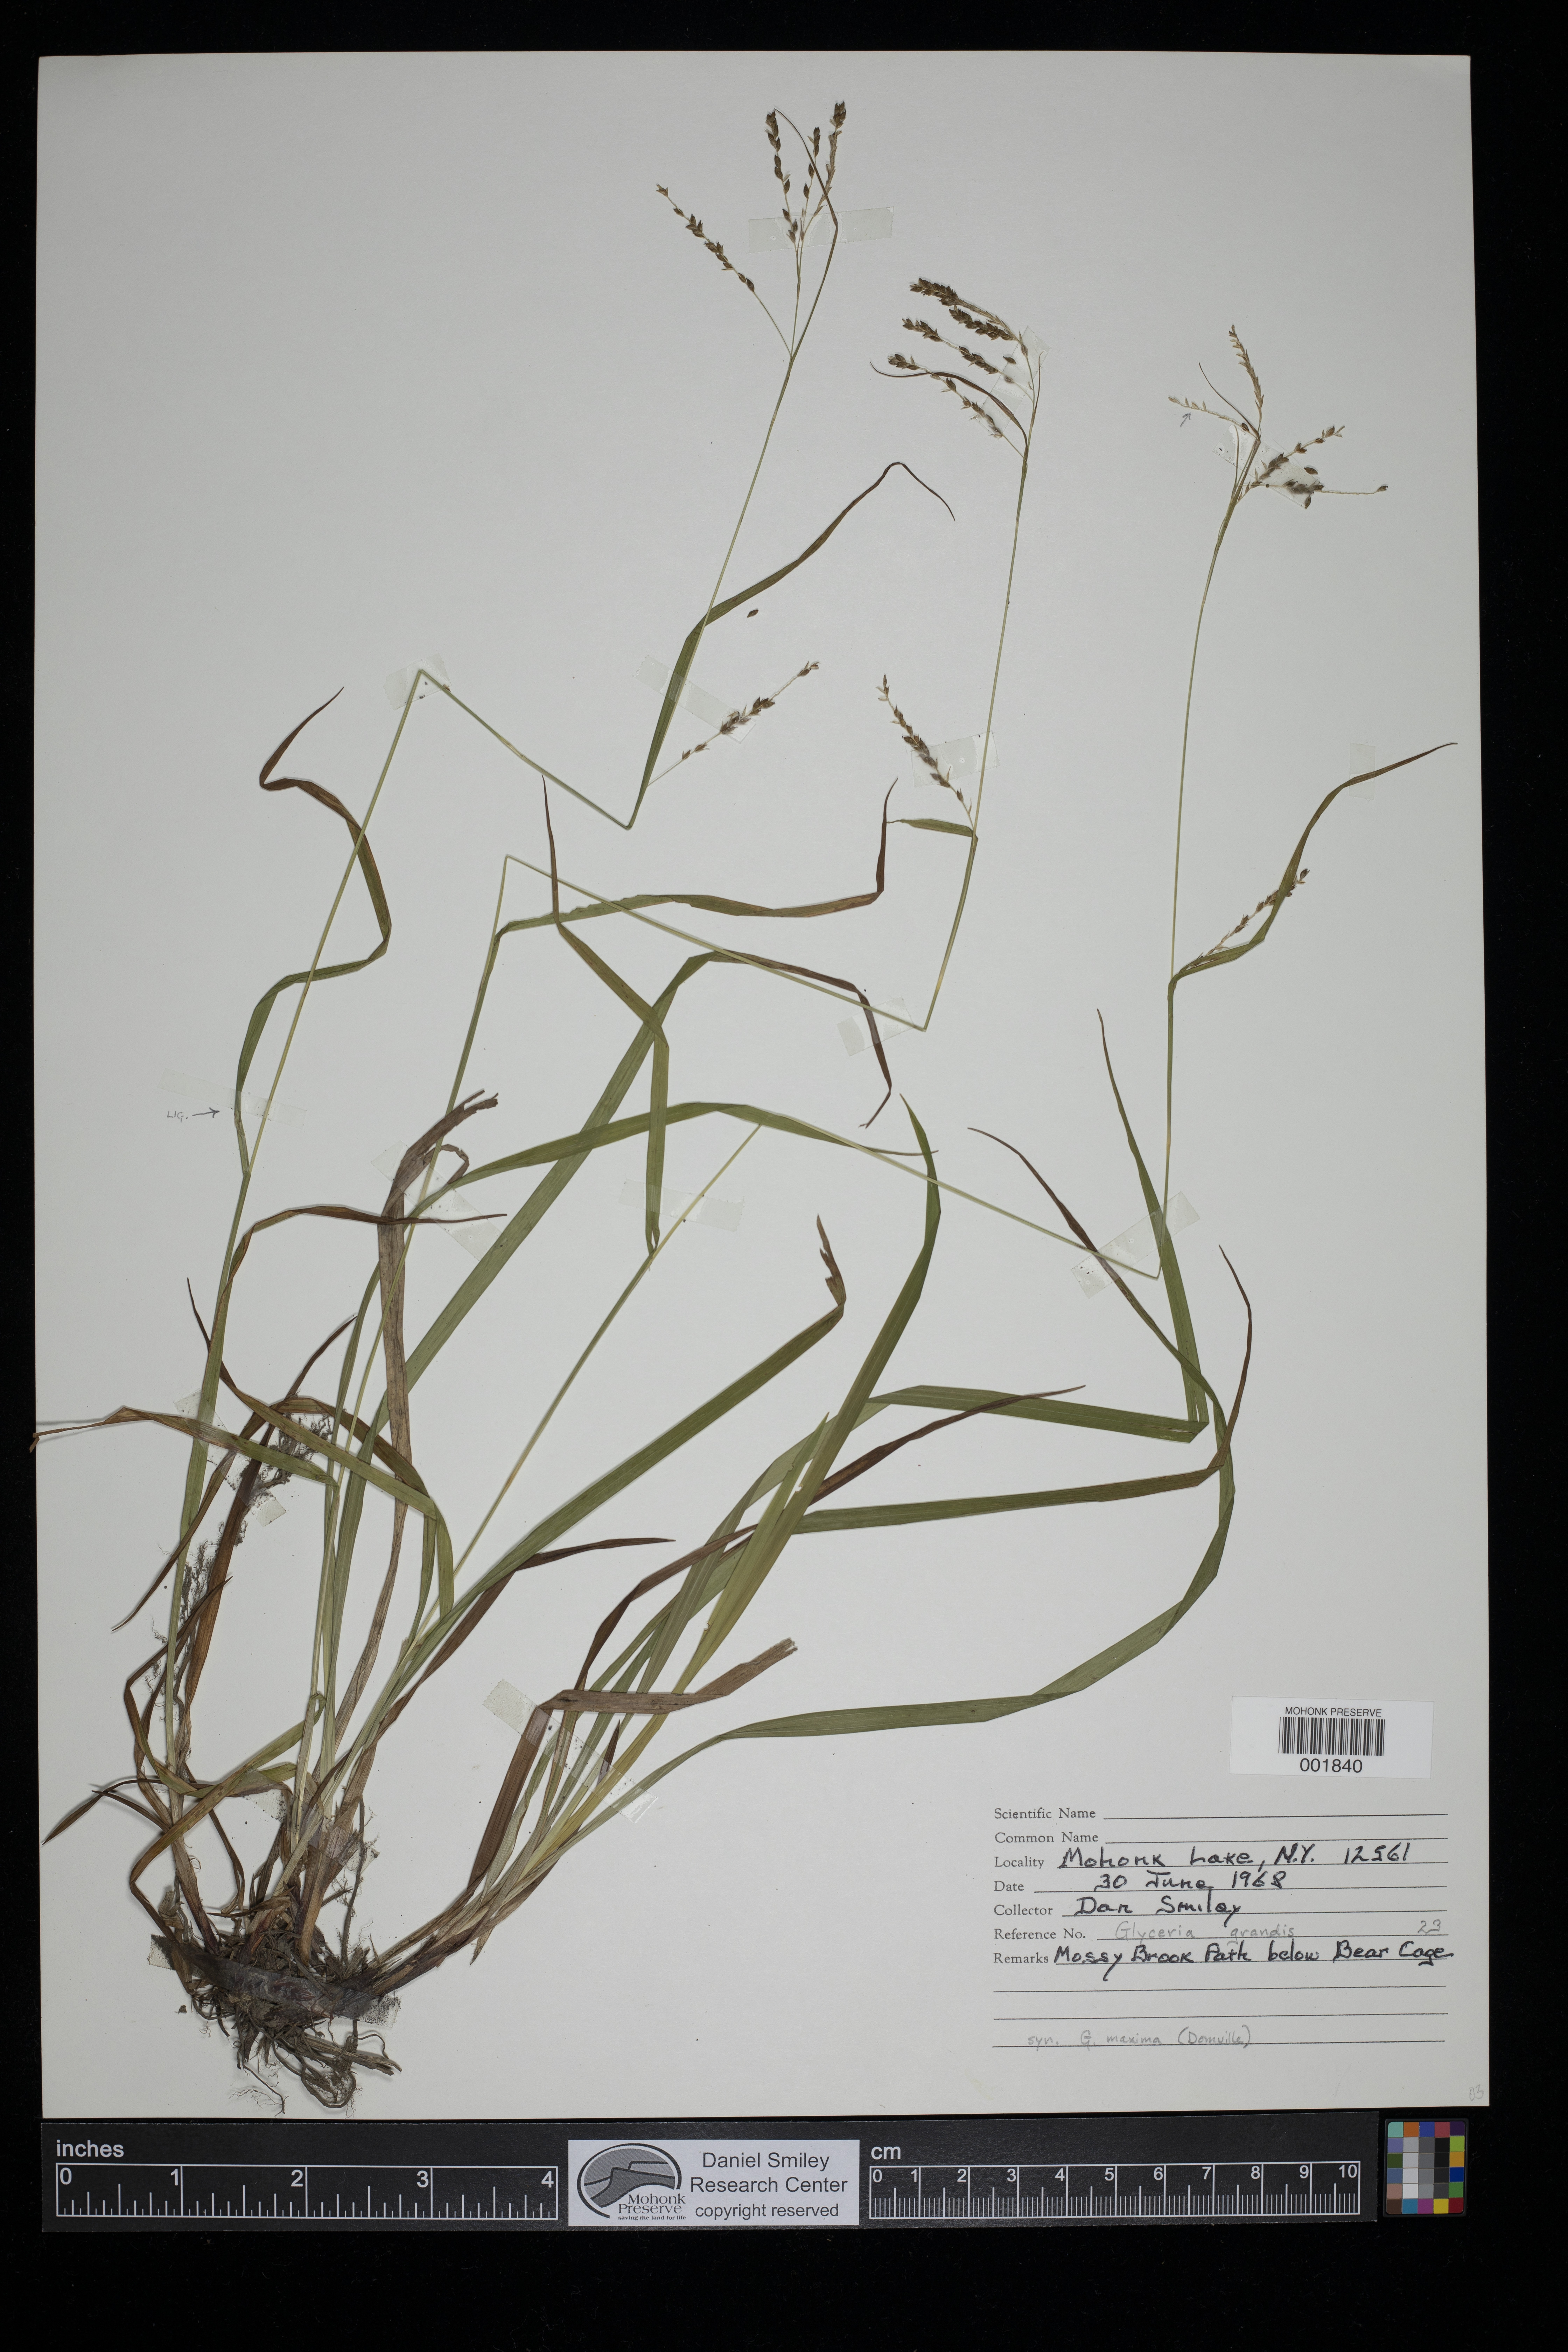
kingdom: Plantae
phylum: Tracheophyta
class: Liliopsida
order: Poales
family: Poaceae
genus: Glyceria
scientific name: Glyceria grandis
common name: American glyceria
